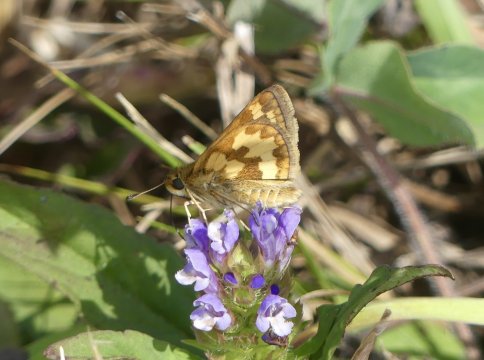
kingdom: Animalia
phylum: Arthropoda
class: Insecta
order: Lepidoptera
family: Hesperiidae
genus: Polites
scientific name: Polites coras
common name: Peck's Skipper
